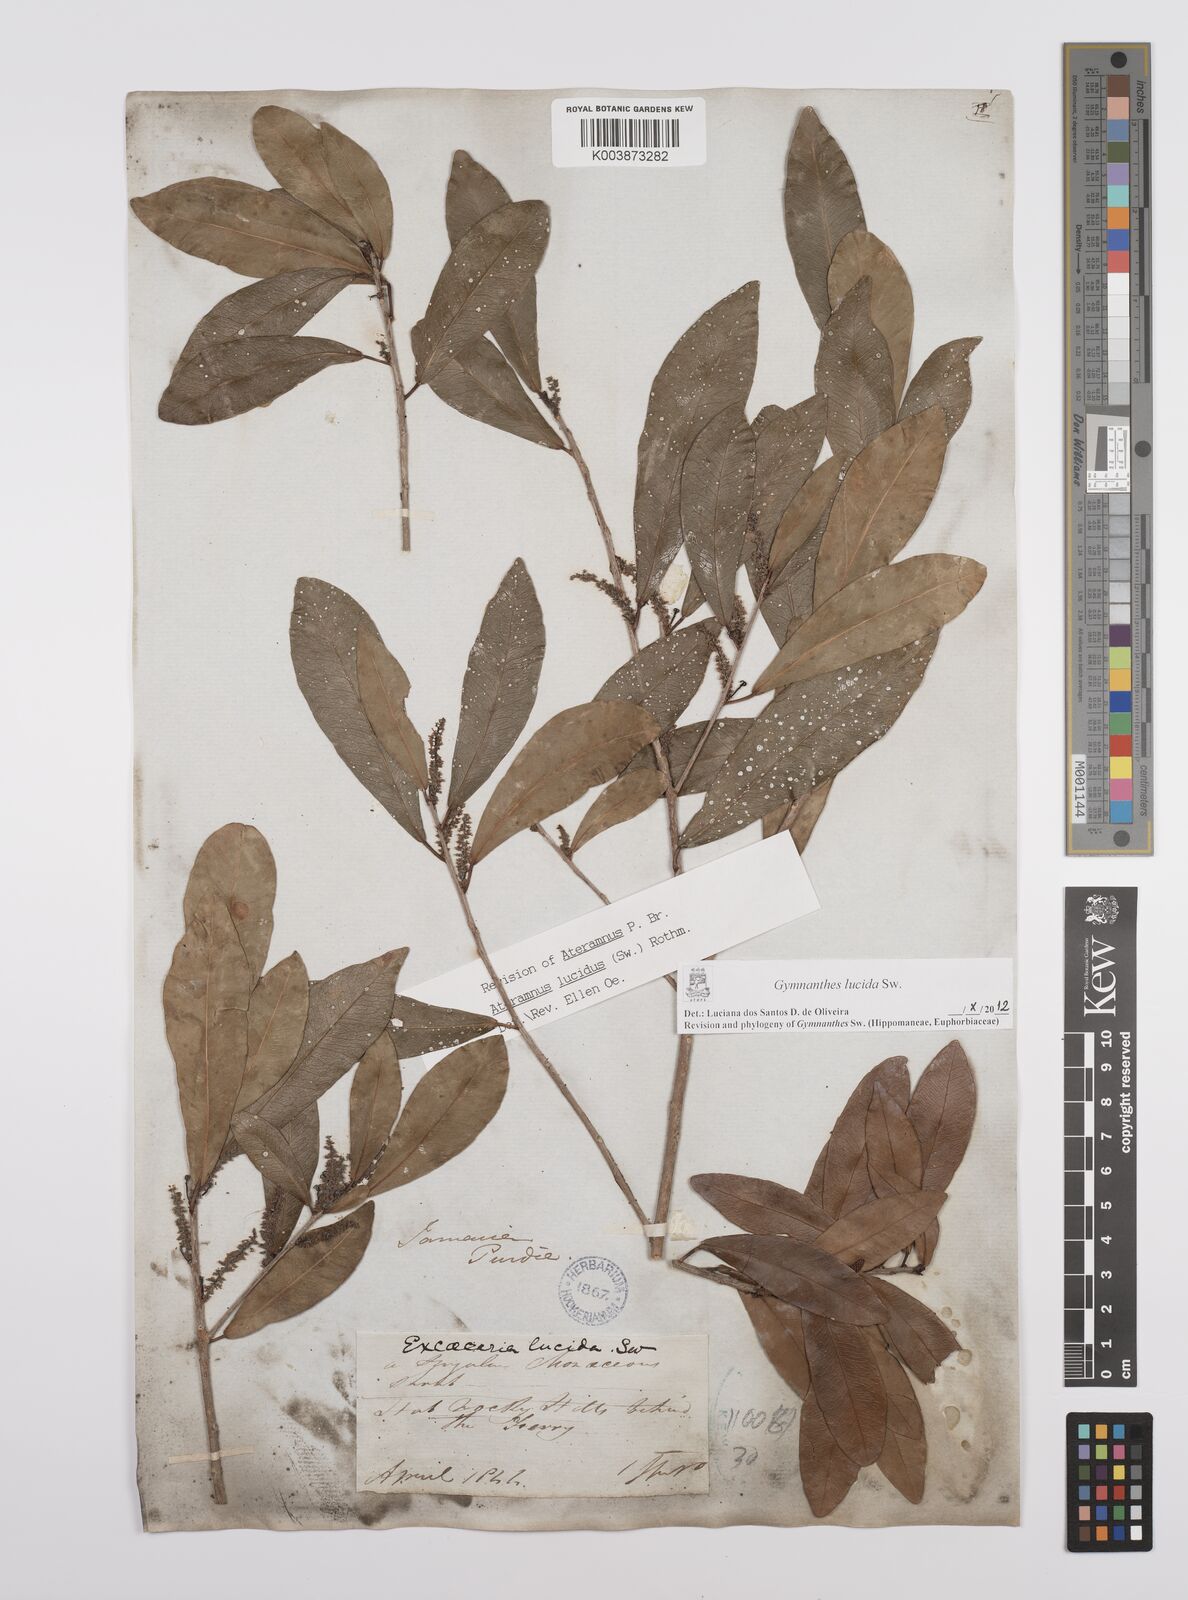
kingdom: Plantae
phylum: Tracheophyta
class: Magnoliopsida
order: Malpighiales
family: Euphorbiaceae
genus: Gymnanthes
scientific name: Gymnanthes lucida
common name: Oysterwood
